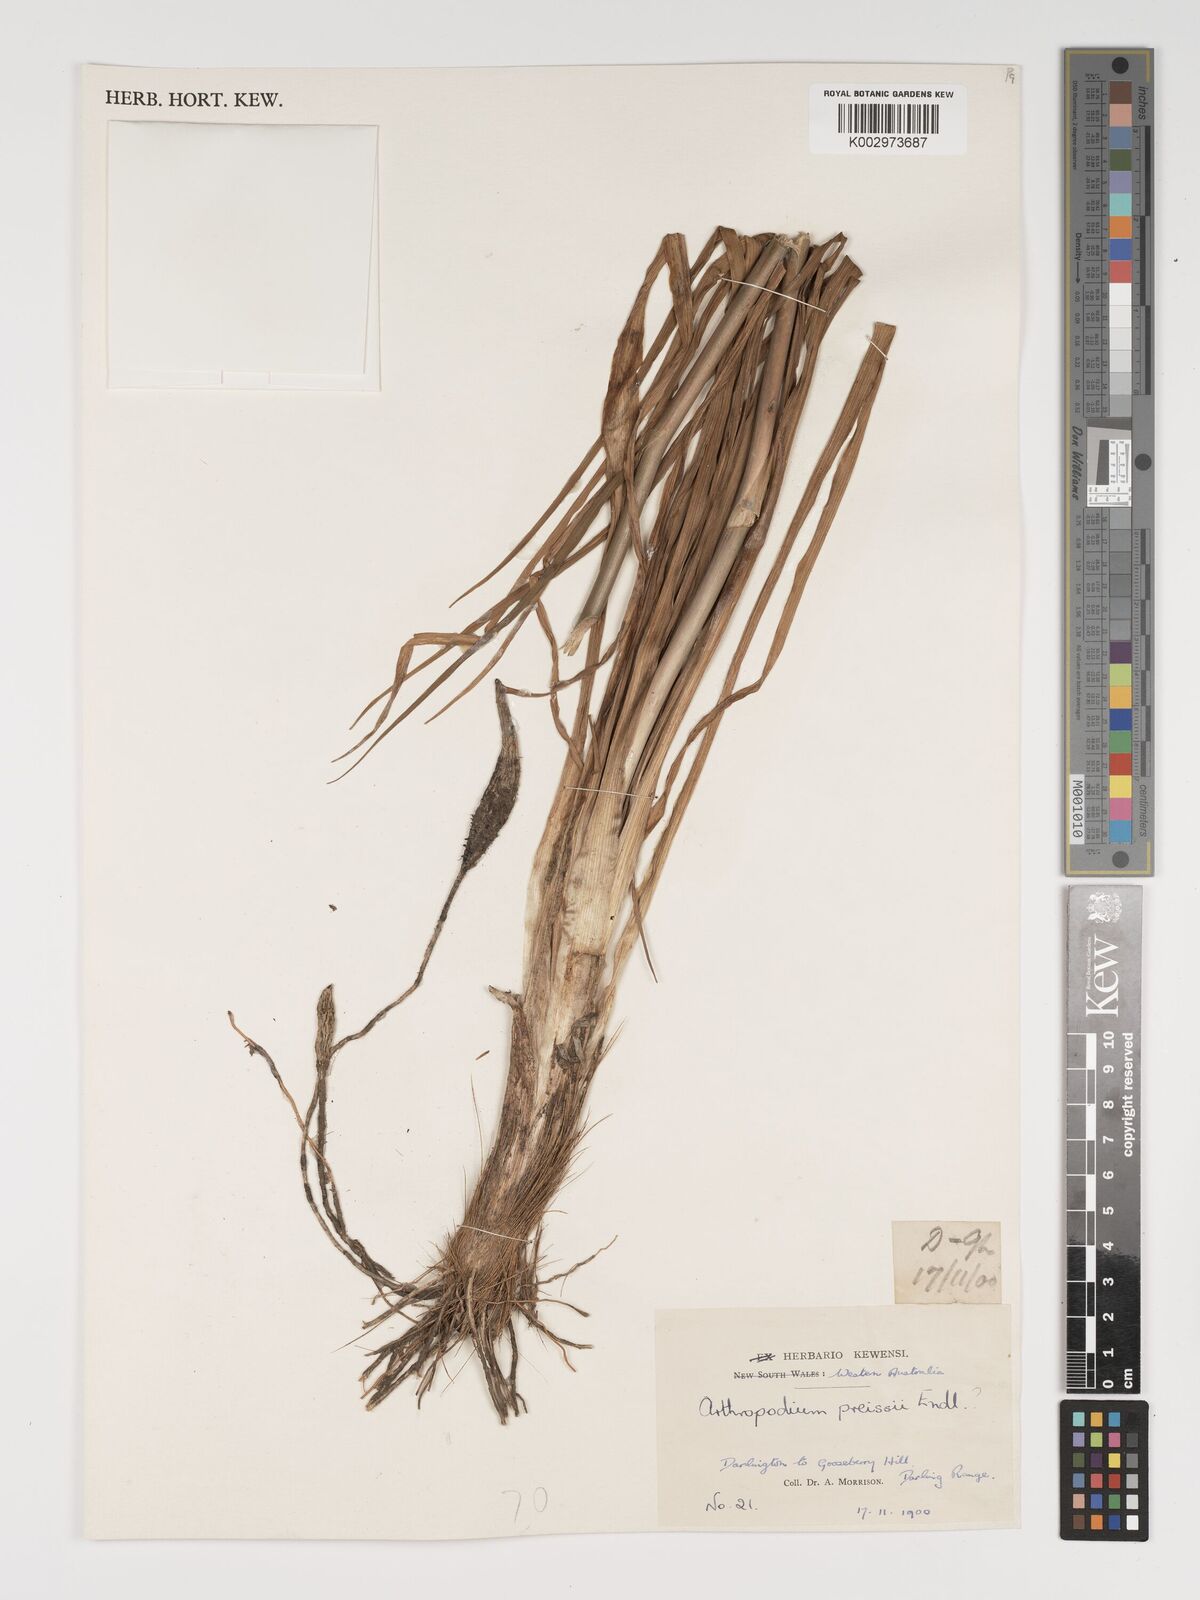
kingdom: Plantae
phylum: Tracheophyta
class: Liliopsida
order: Asparagales
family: Asparagaceae
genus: Dichopogon
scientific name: Dichopogon capillipes
